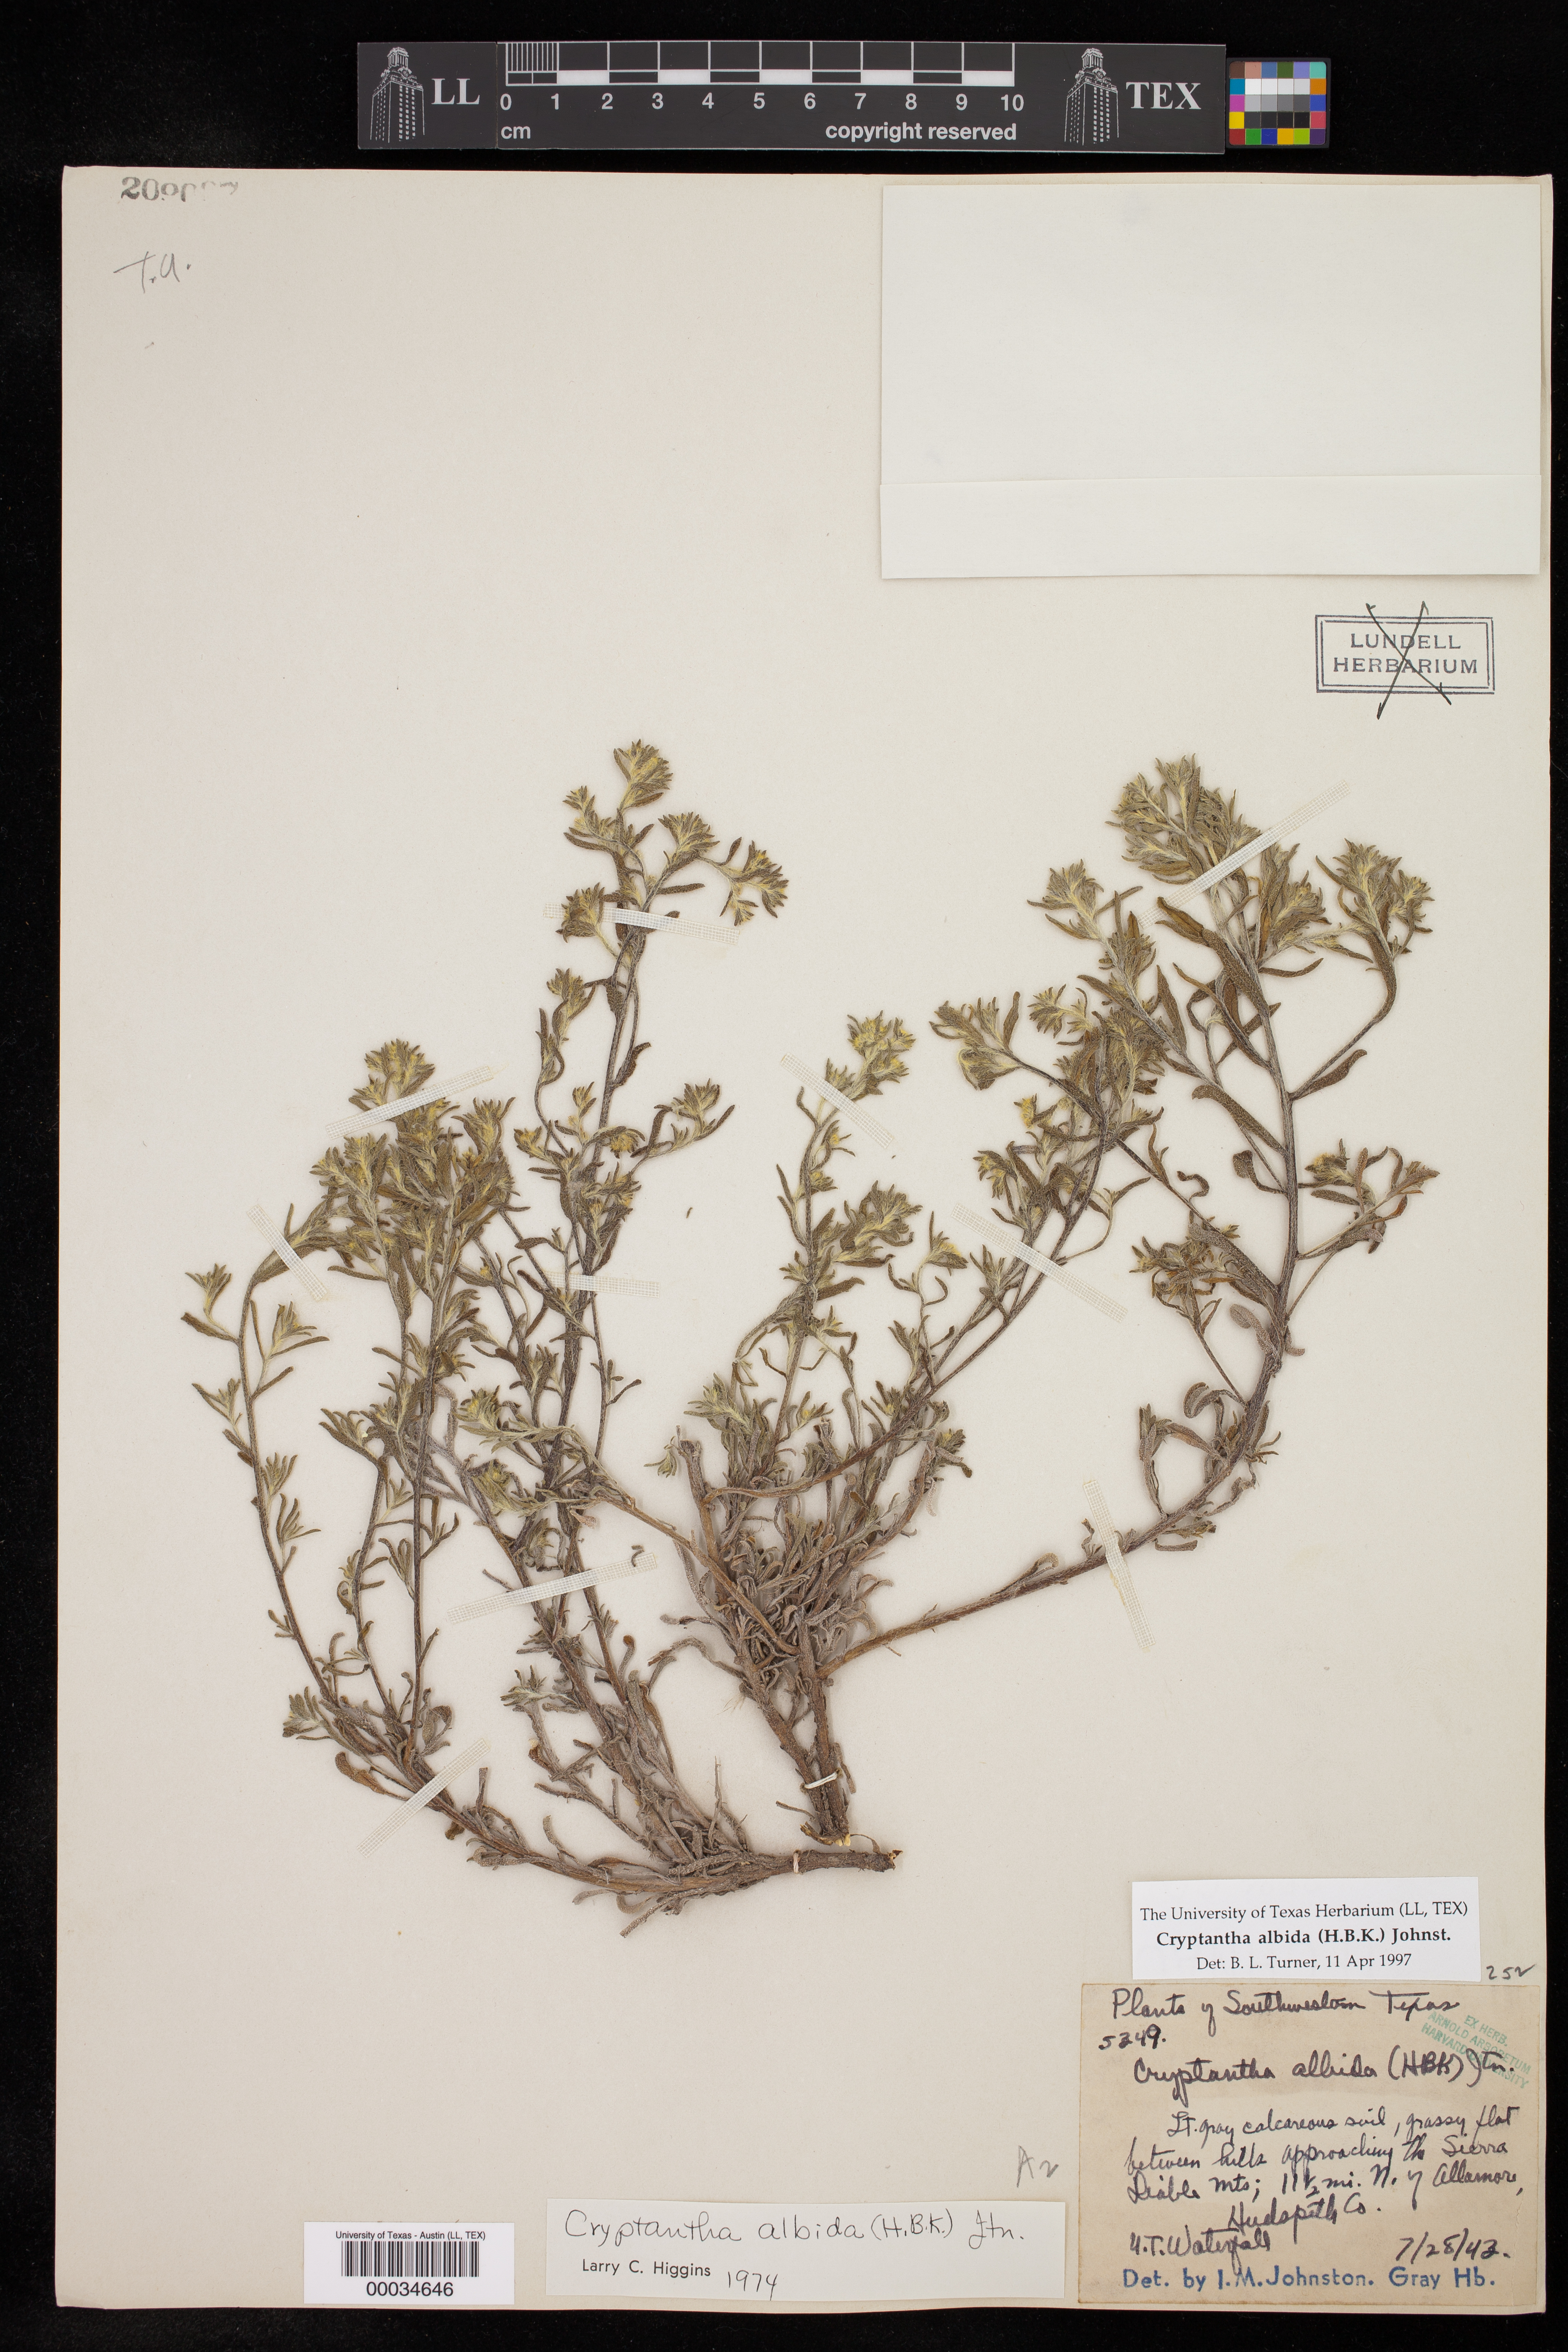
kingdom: Plantae
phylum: Tracheophyta
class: Magnoliopsida
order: Boraginales
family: Boraginaceae
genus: Johnstonella
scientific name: Johnstonella albida
